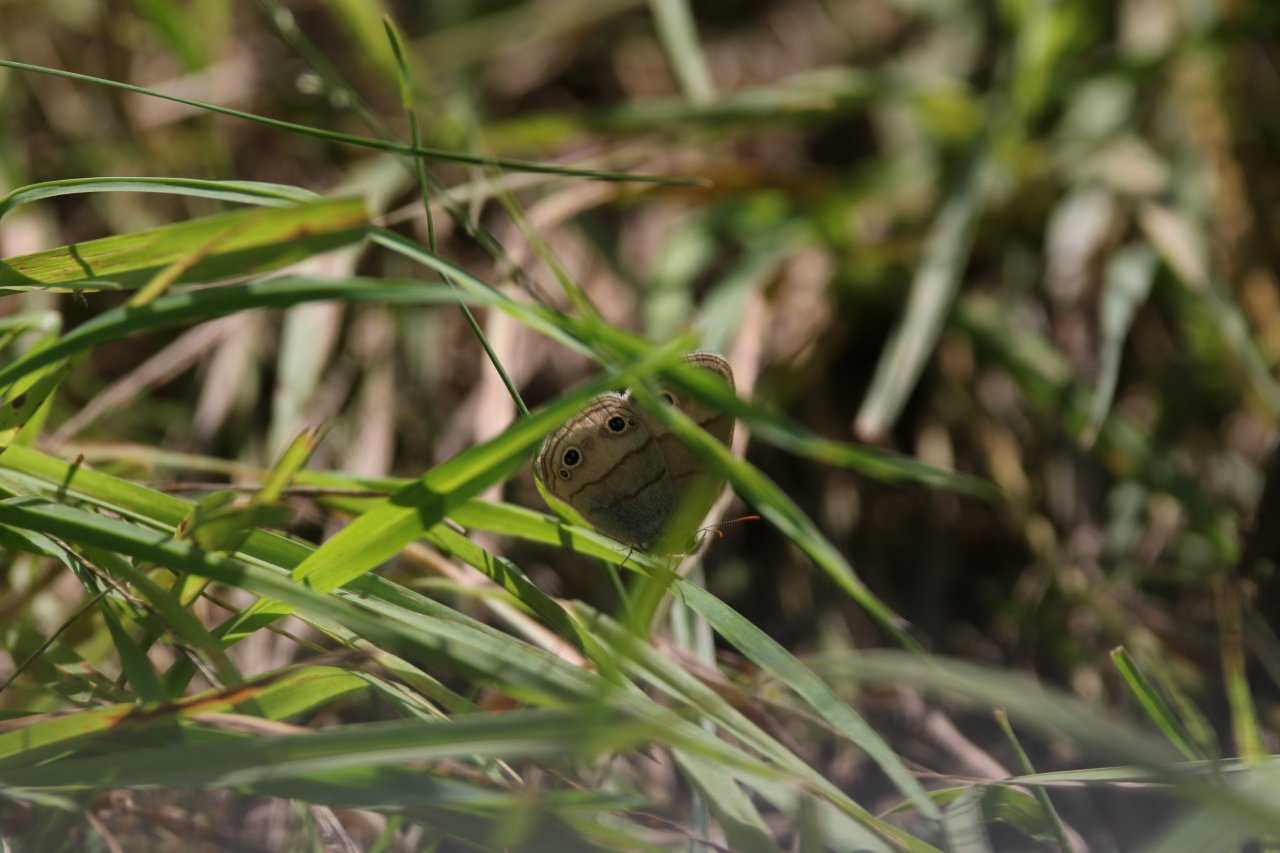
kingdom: Animalia
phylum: Arthropoda
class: Insecta
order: Lepidoptera
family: Nymphalidae
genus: Euptychia
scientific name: Euptychia cymela
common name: Little Wood Satyr
